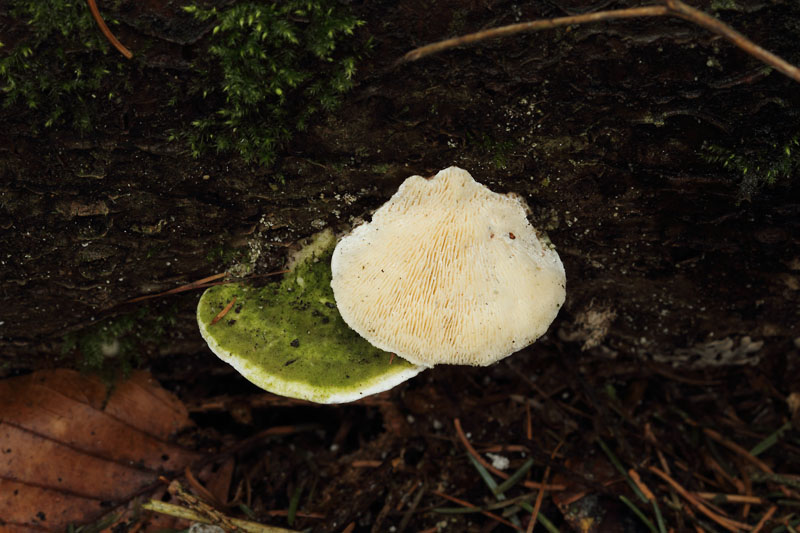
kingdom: Fungi
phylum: Basidiomycota
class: Agaricomycetes
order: Polyporales
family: Polyporaceae
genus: Trametes
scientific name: Trametes gibbosa
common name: puklet læderporesvamp
